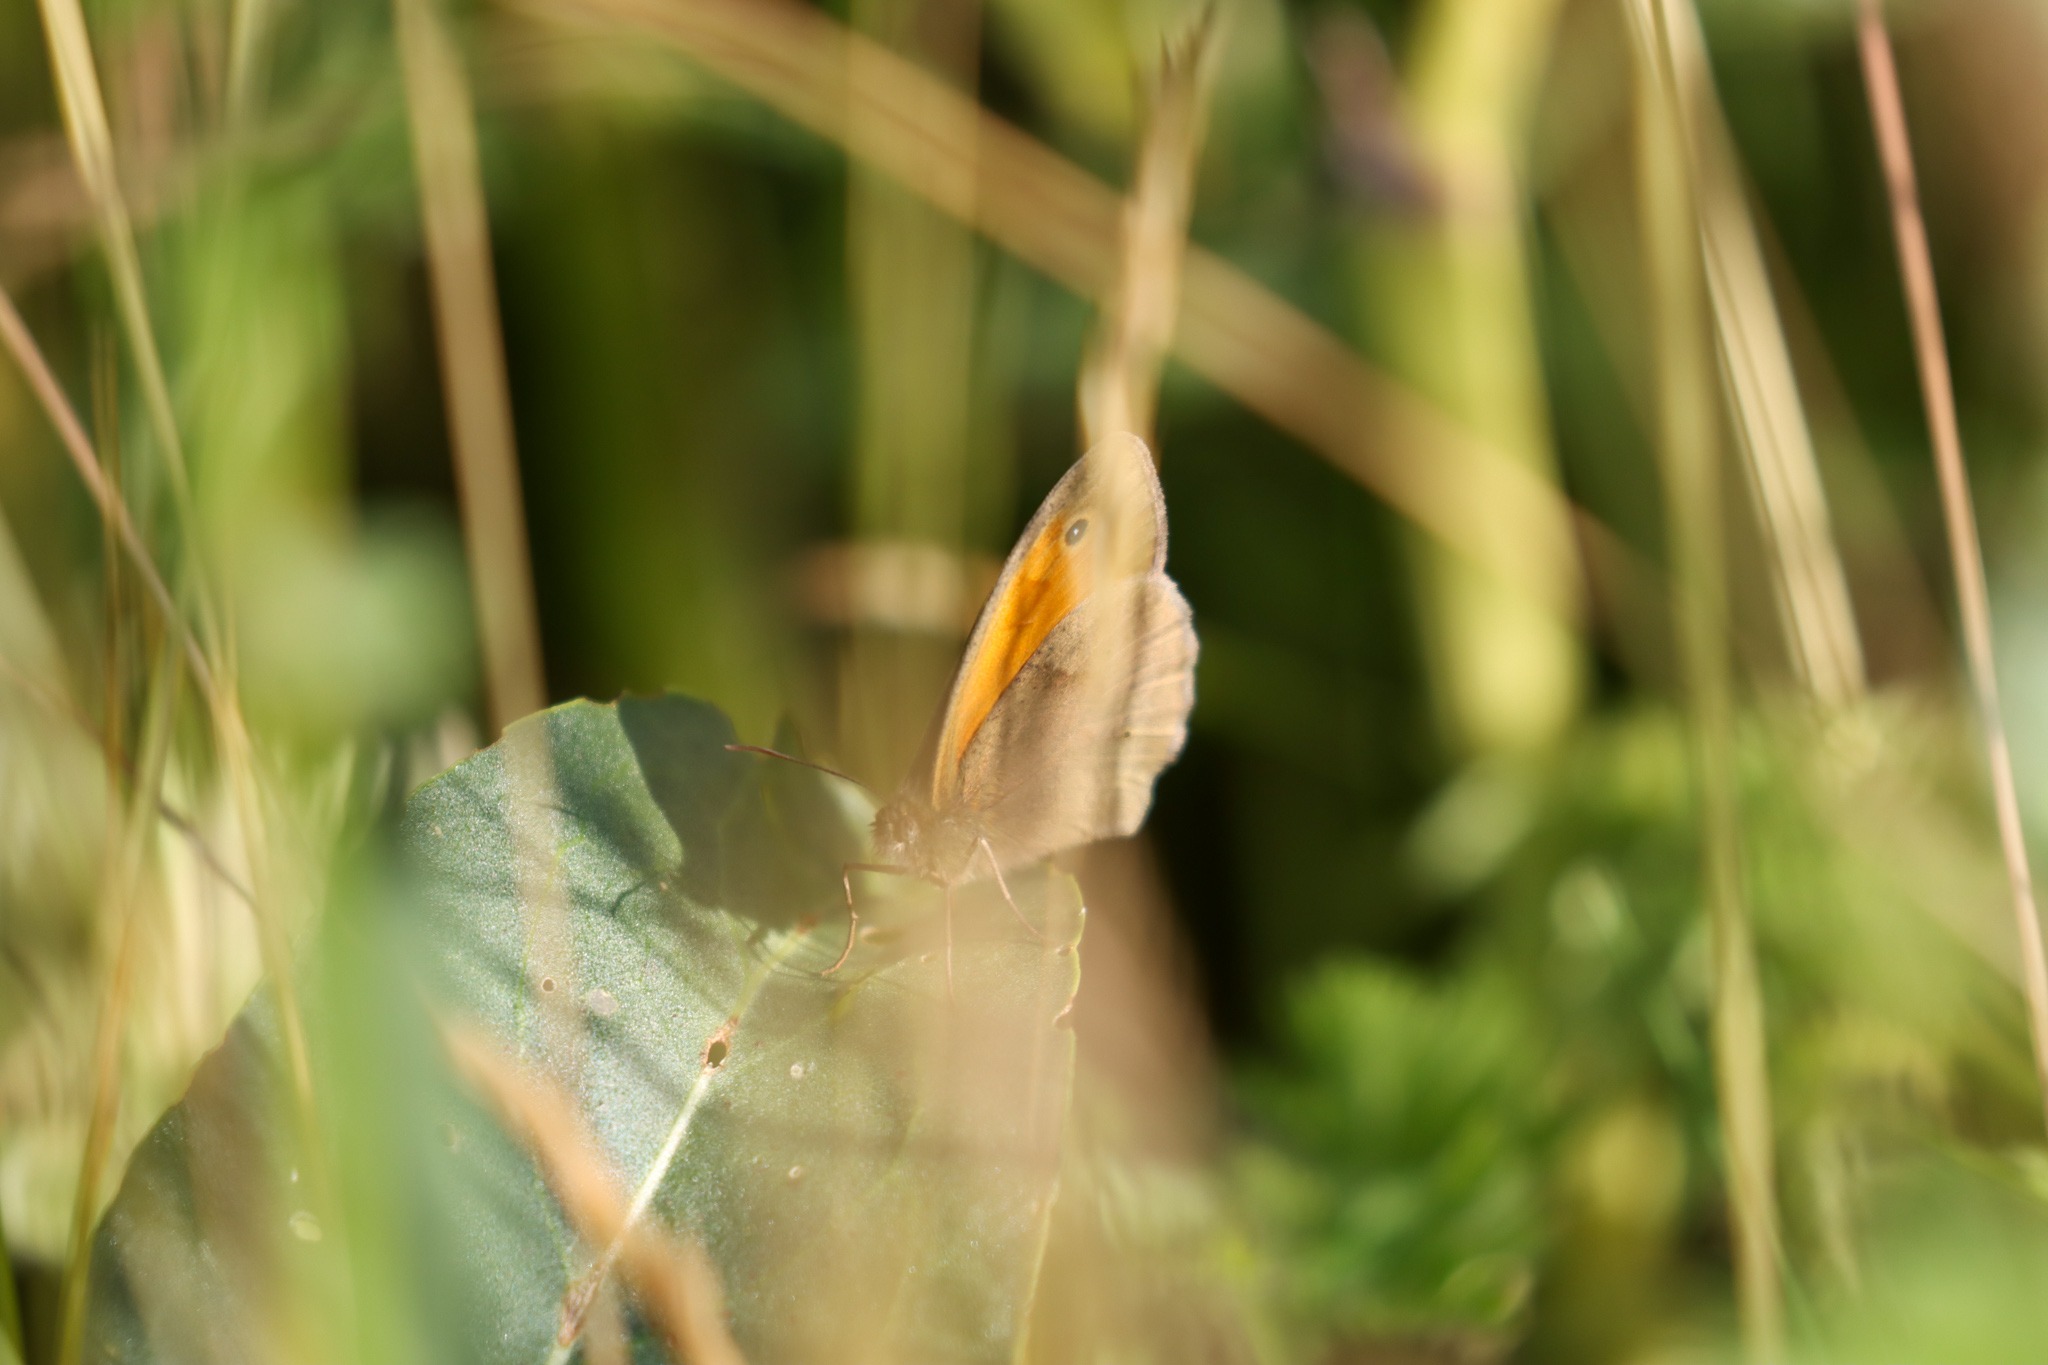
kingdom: Animalia
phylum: Arthropoda
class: Insecta
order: Lepidoptera
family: Nymphalidae
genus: Maniola
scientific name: Maniola jurtina
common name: Græsrandøje
